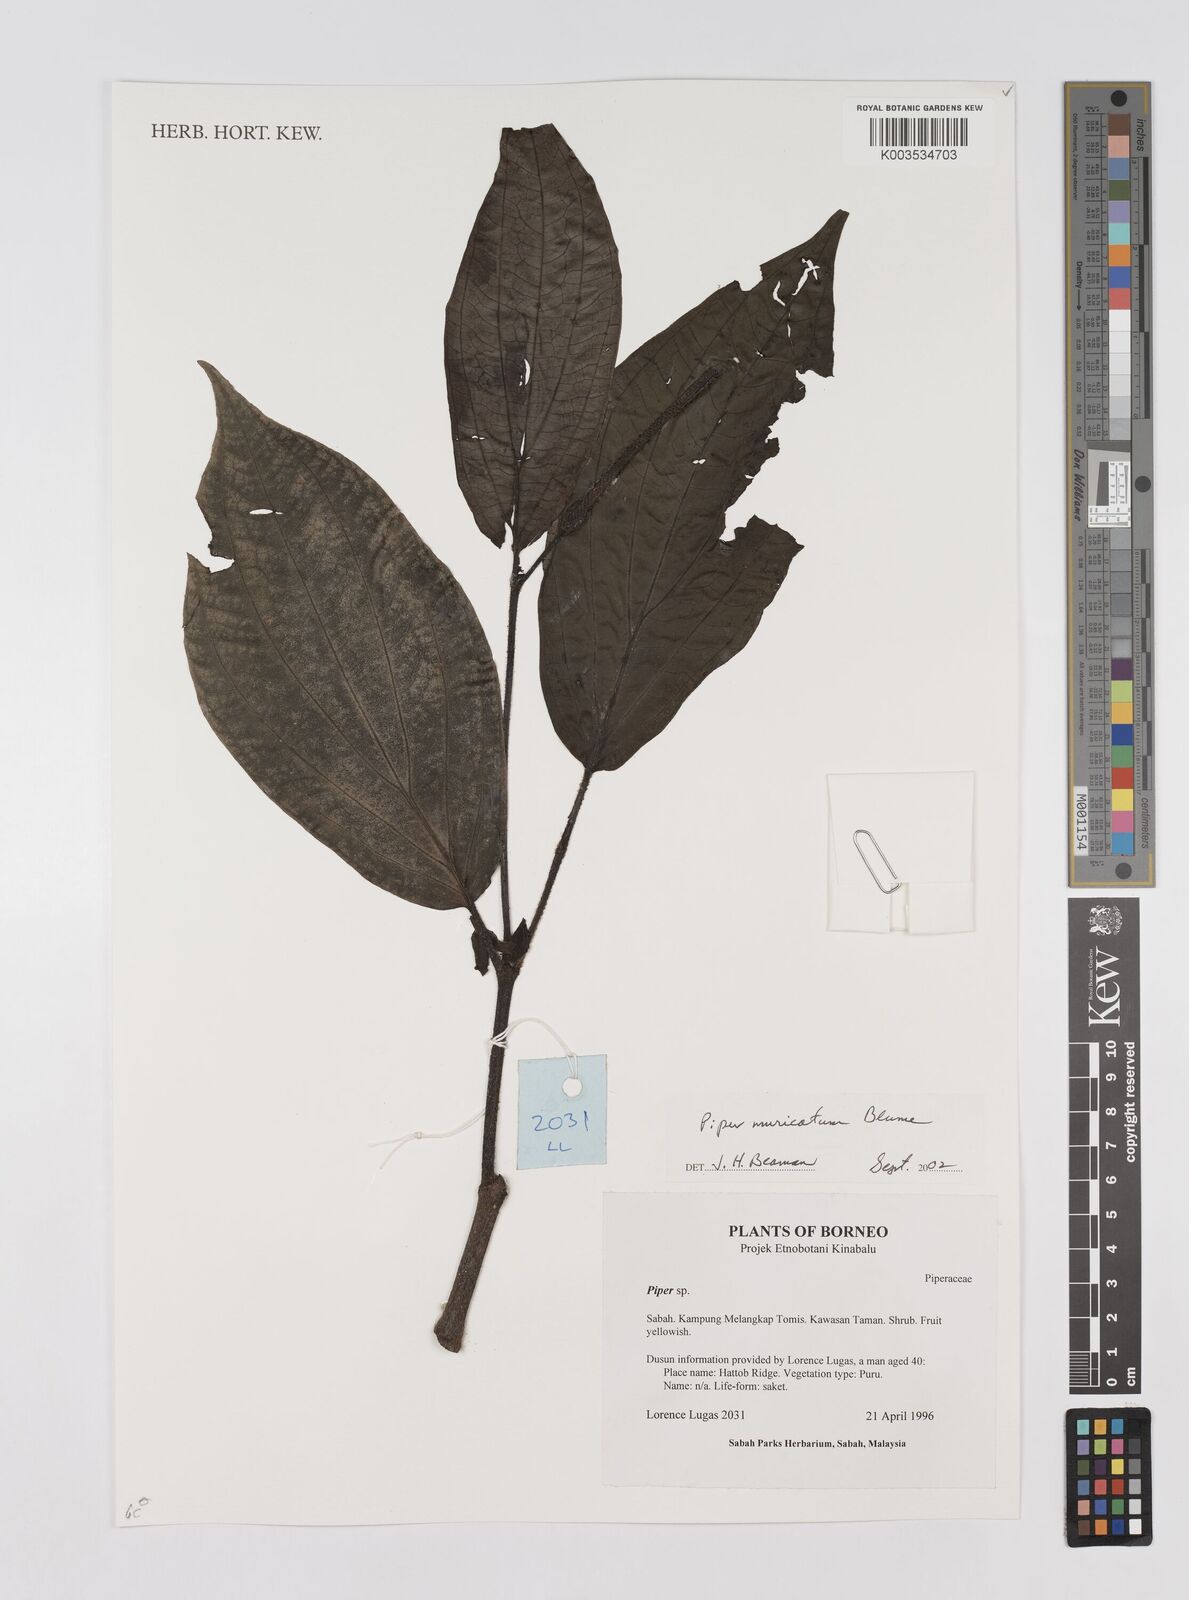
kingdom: Plantae
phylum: Tracheophyta
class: Magnoliopsida
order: Piperales
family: Piperaceae
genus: Piper
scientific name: Piper muricatum
